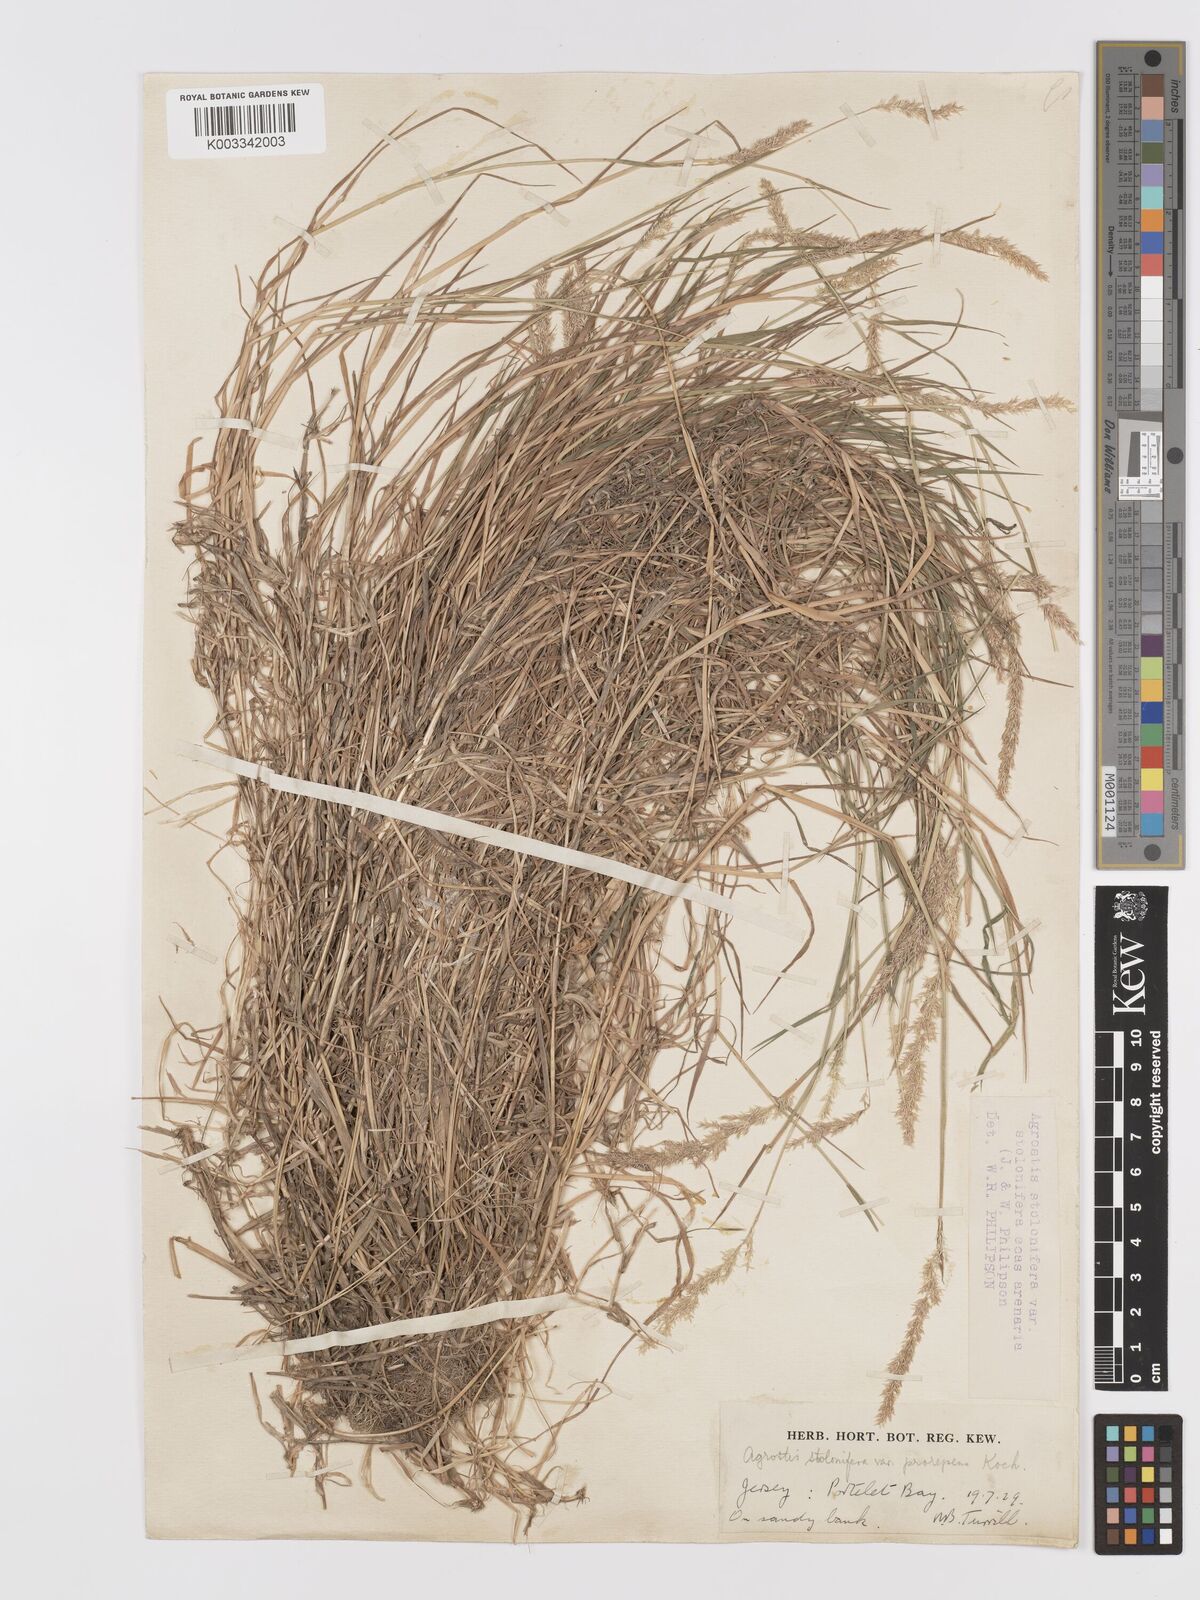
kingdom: Plantae
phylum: Tracheophyta
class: Liliopsida
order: Poales
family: Poaceae
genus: Agrostis
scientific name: Agrostis stolonifera
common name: Creeping bentgrass
